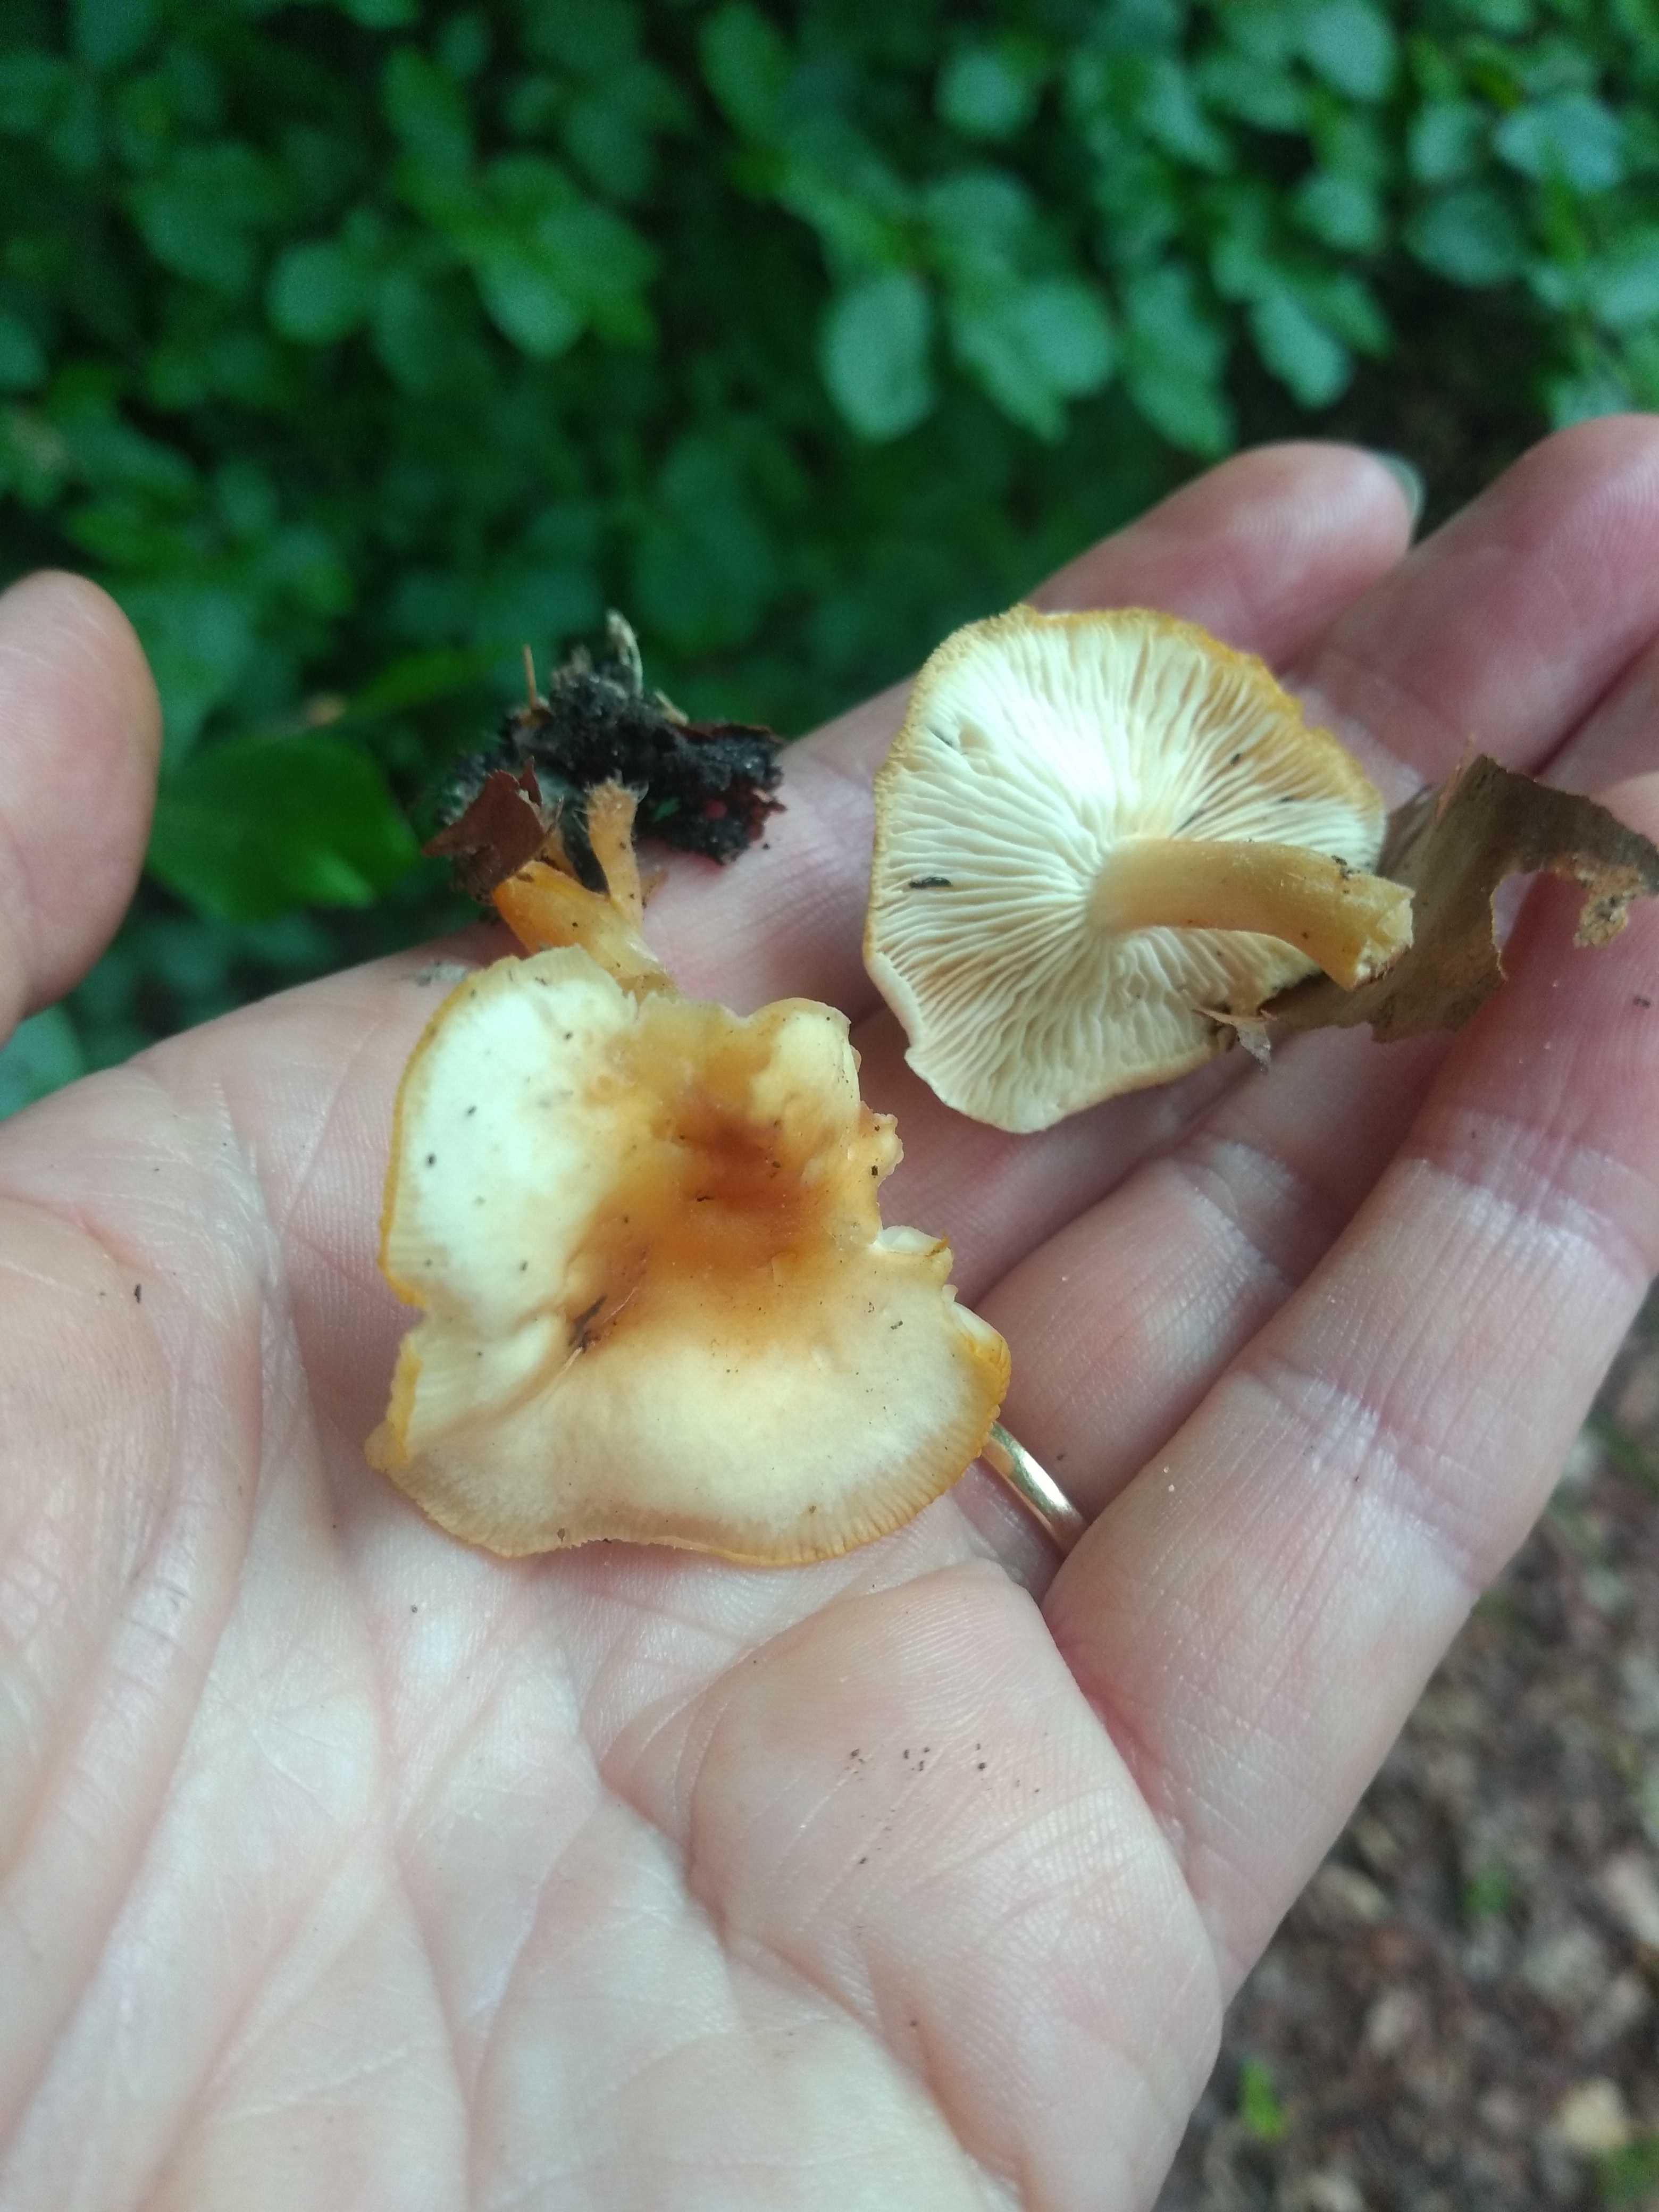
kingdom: Fungi
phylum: Basidiomycota
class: Agaricomycetes
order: Agaricales
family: Omphalotaceae
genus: Gymnopus
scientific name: Gymnopus
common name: fladhat
